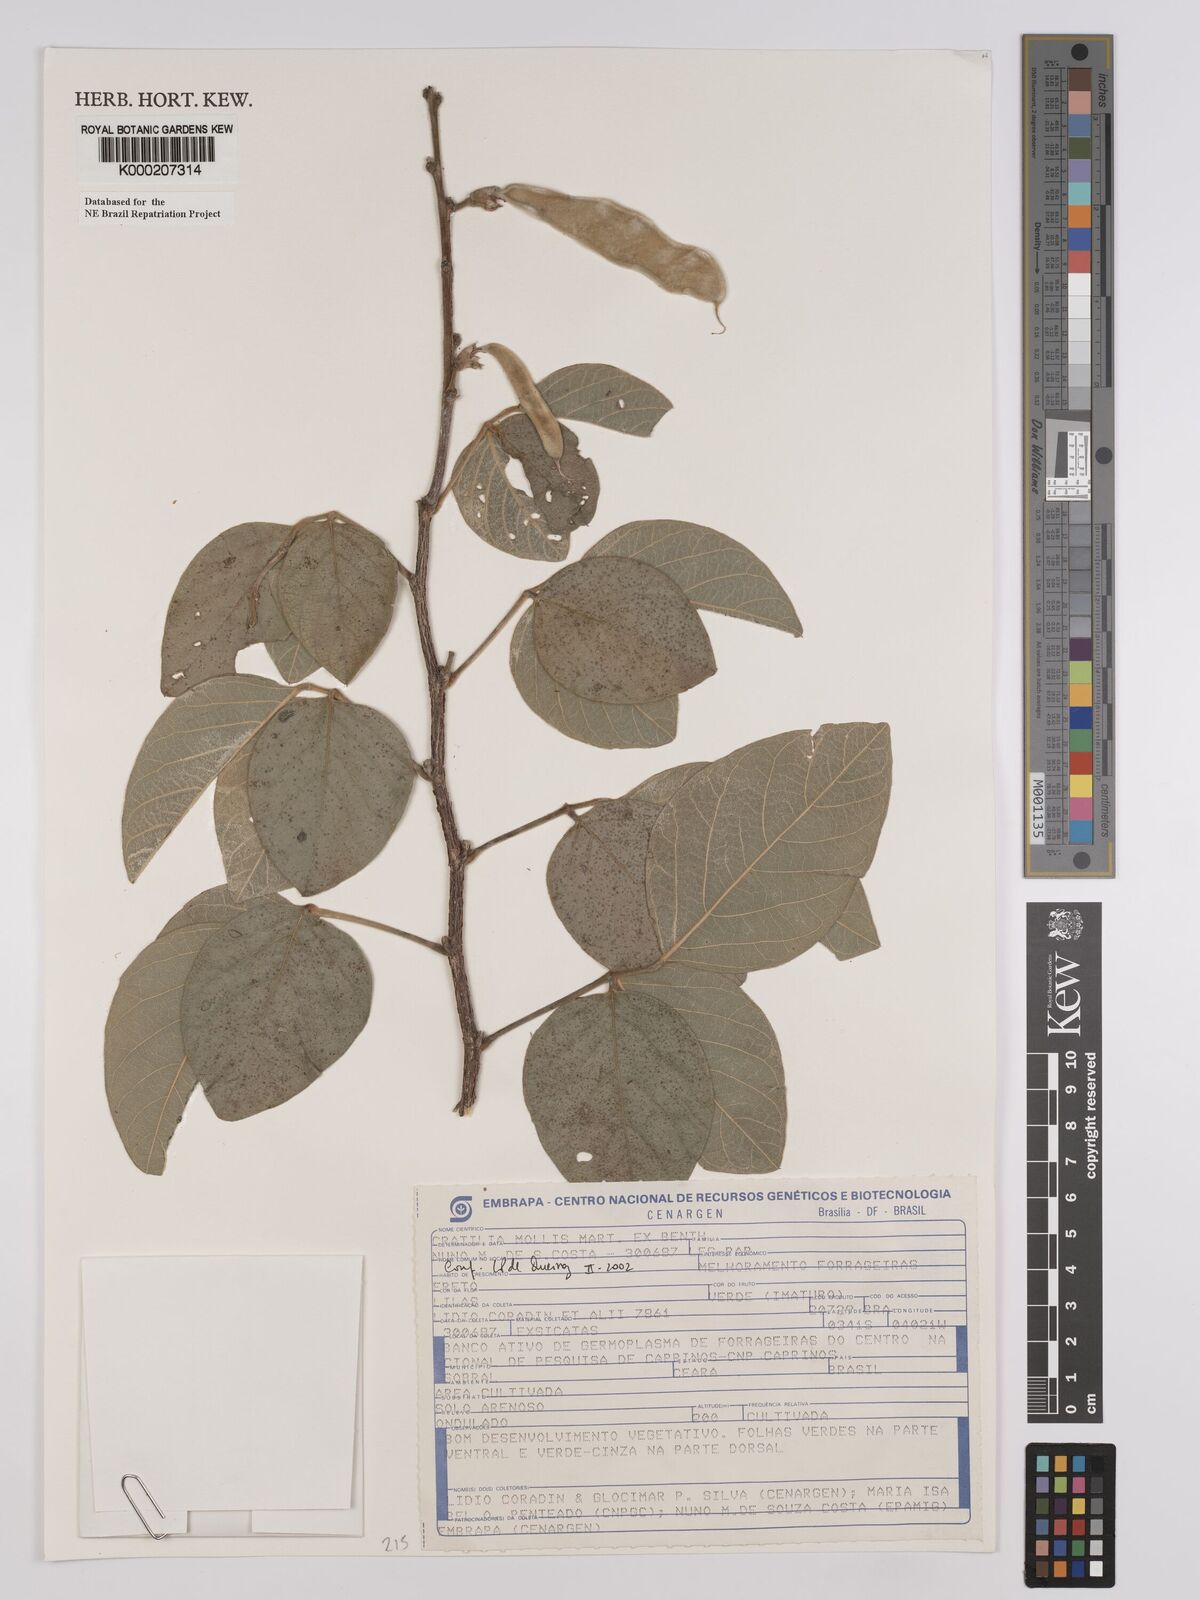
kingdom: Plantae
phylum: Tracheophyta
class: Magnoliopsida
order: Fabales
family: Fabaceae
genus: Cratylia
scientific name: Cratylia mollis
